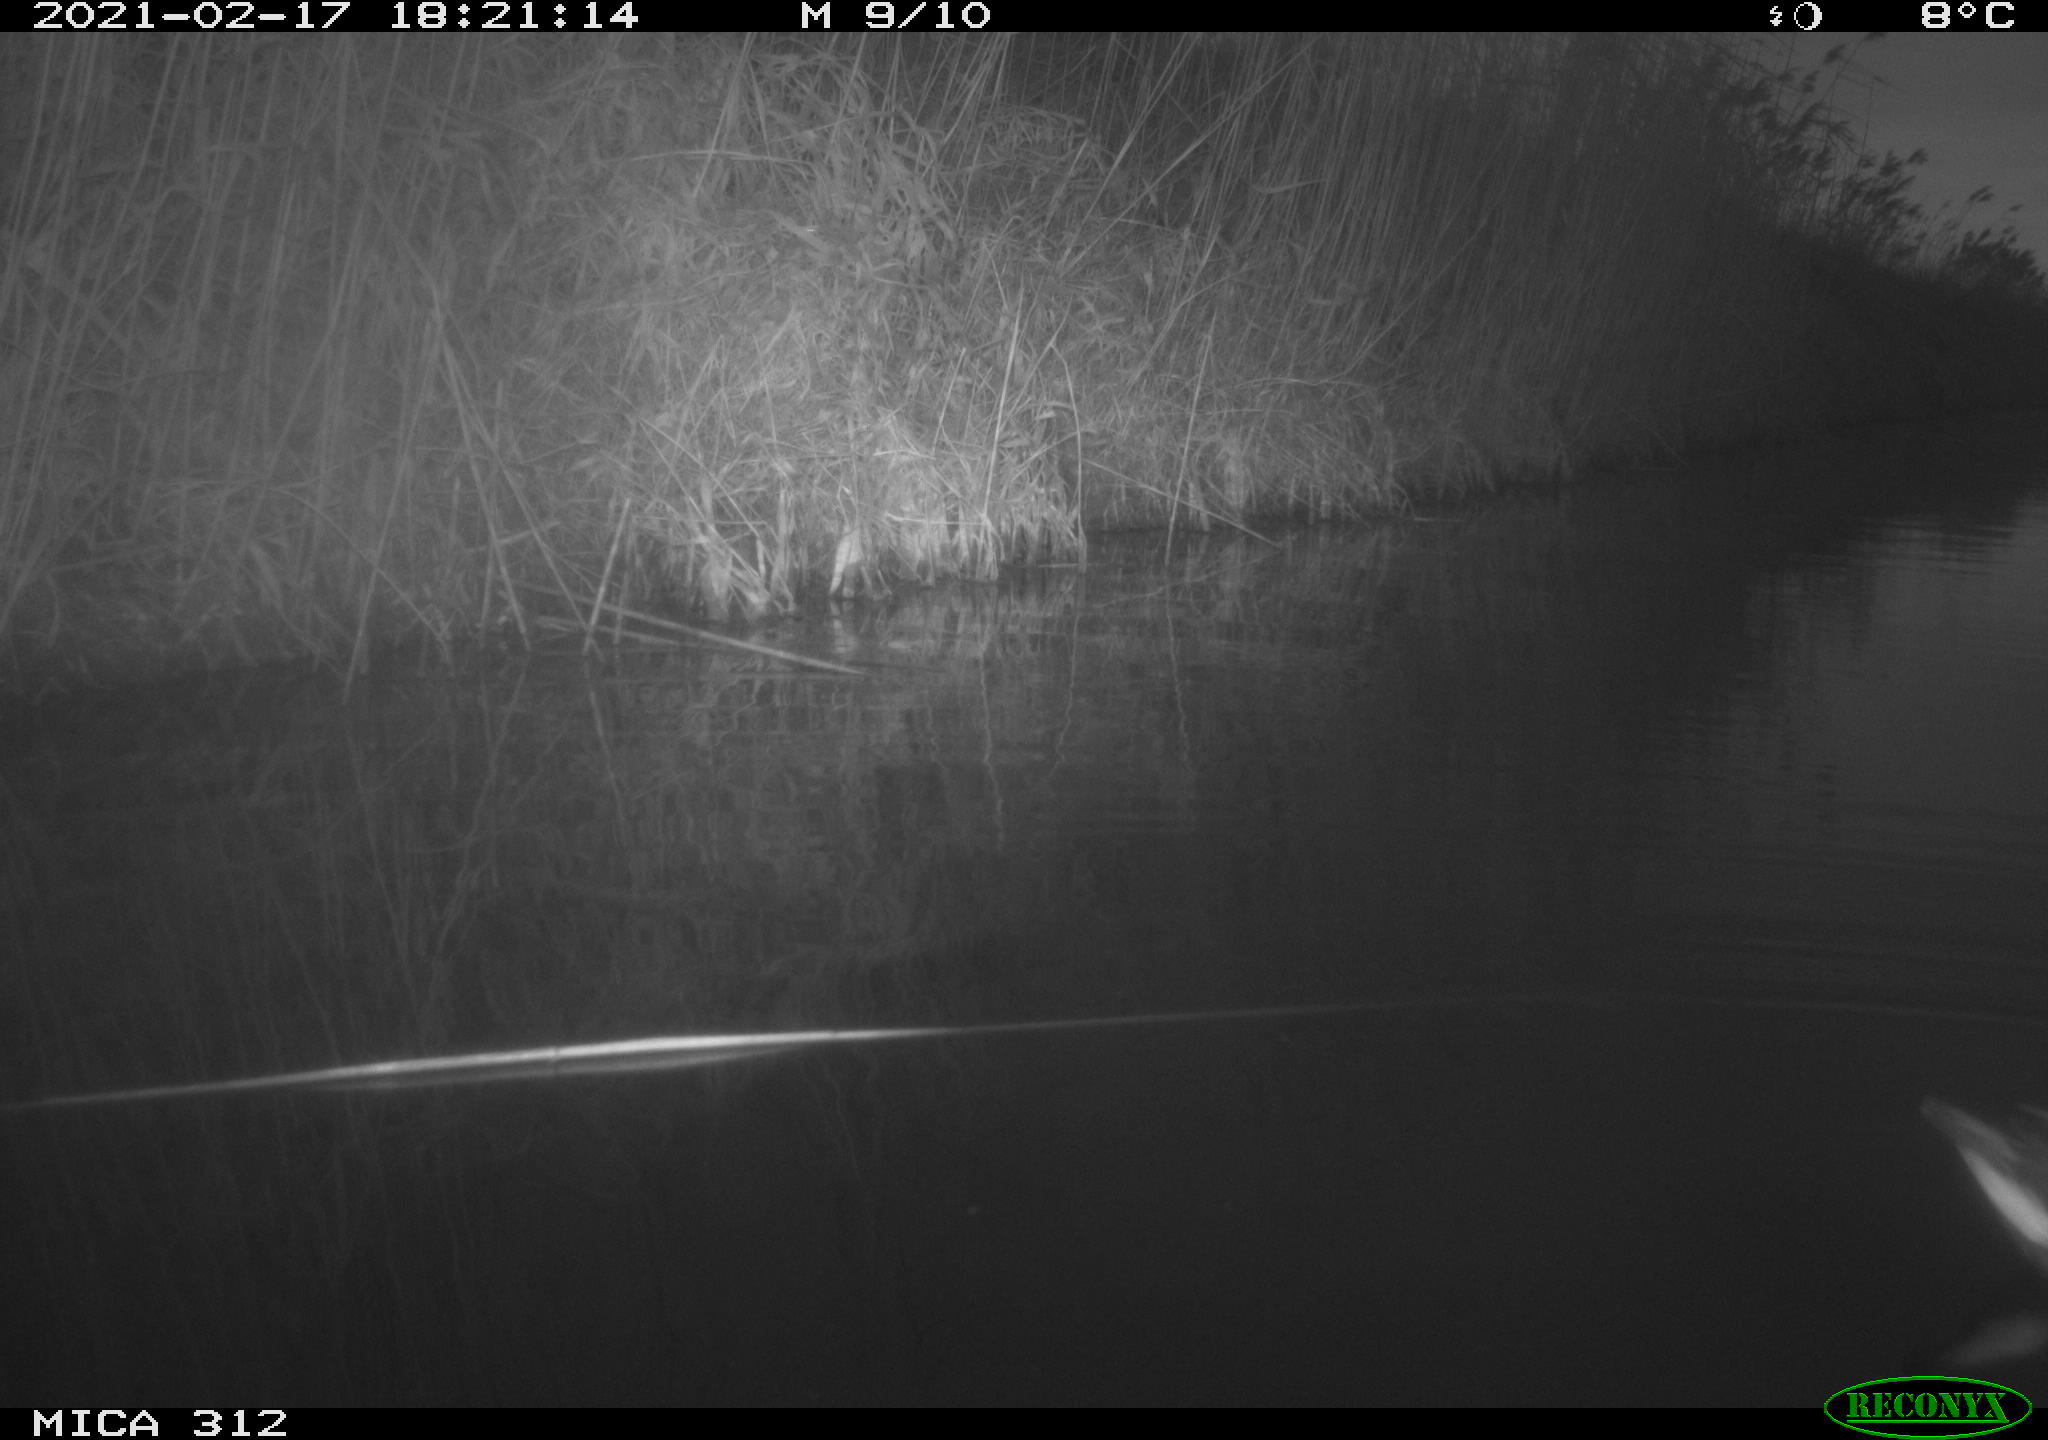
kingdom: Animalia
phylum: Chordata
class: Aves
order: Gruiformes
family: Rallidae
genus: Gallinula
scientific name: Gallinula chloropus
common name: Common moorhen
